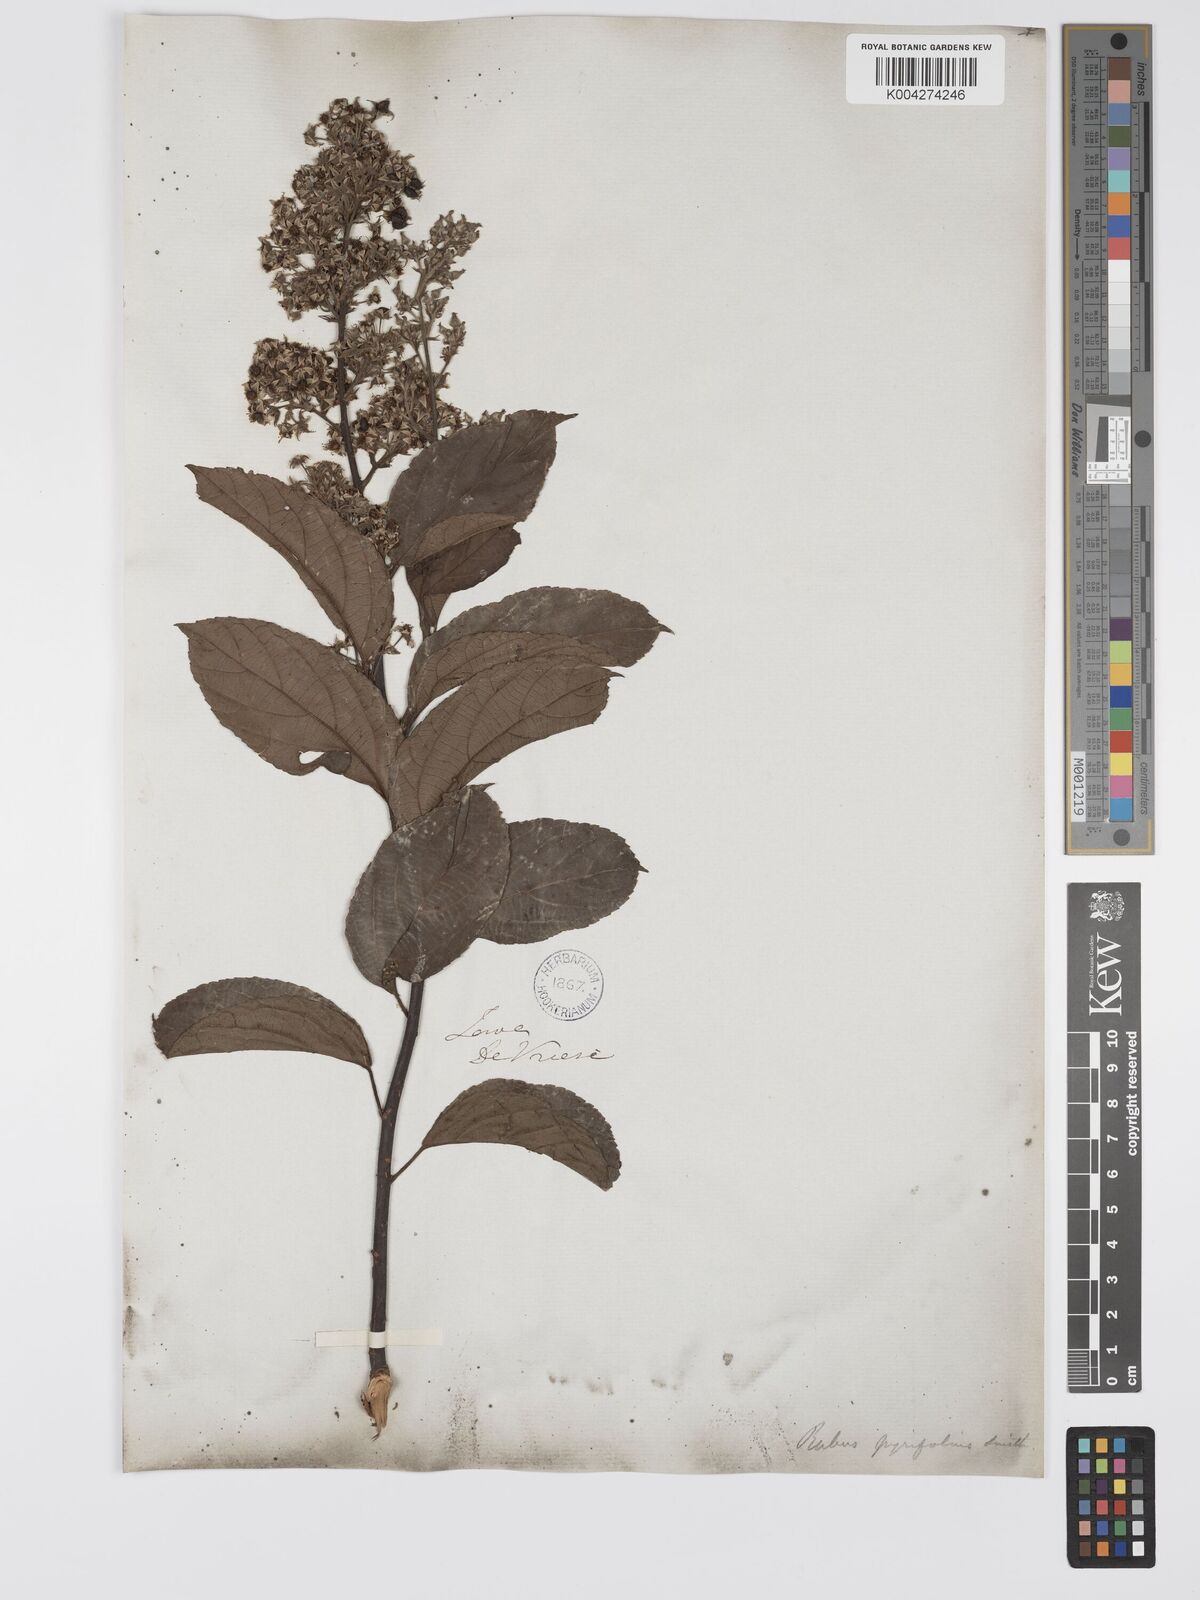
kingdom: Plantae
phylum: Tracheophyta
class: Magnoliopsida
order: Rosales
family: Rosaceae
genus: Rubus
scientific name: Rubus pirifolius
